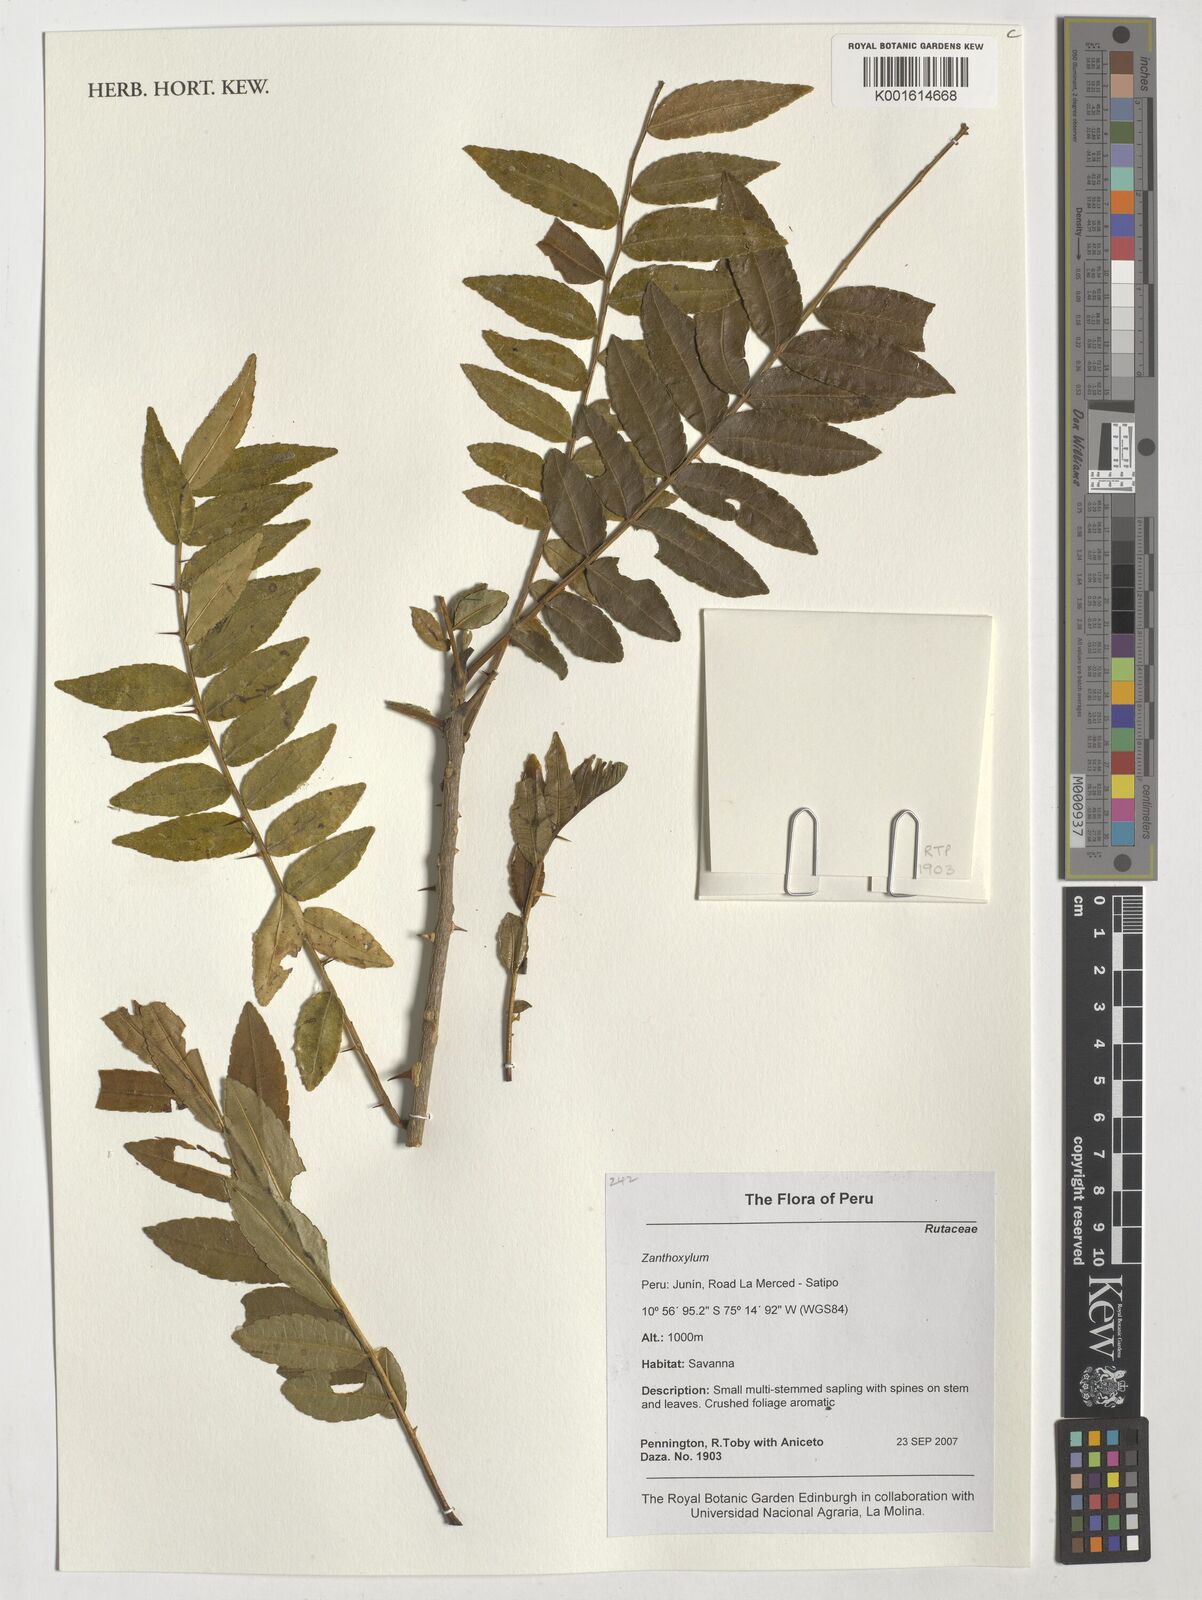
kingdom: Plantae
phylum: Tracheophyta
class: Magnoliopsida
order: Sapindales
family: Rutaceae
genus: Zanthoxylum
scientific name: Zanthoxylum
